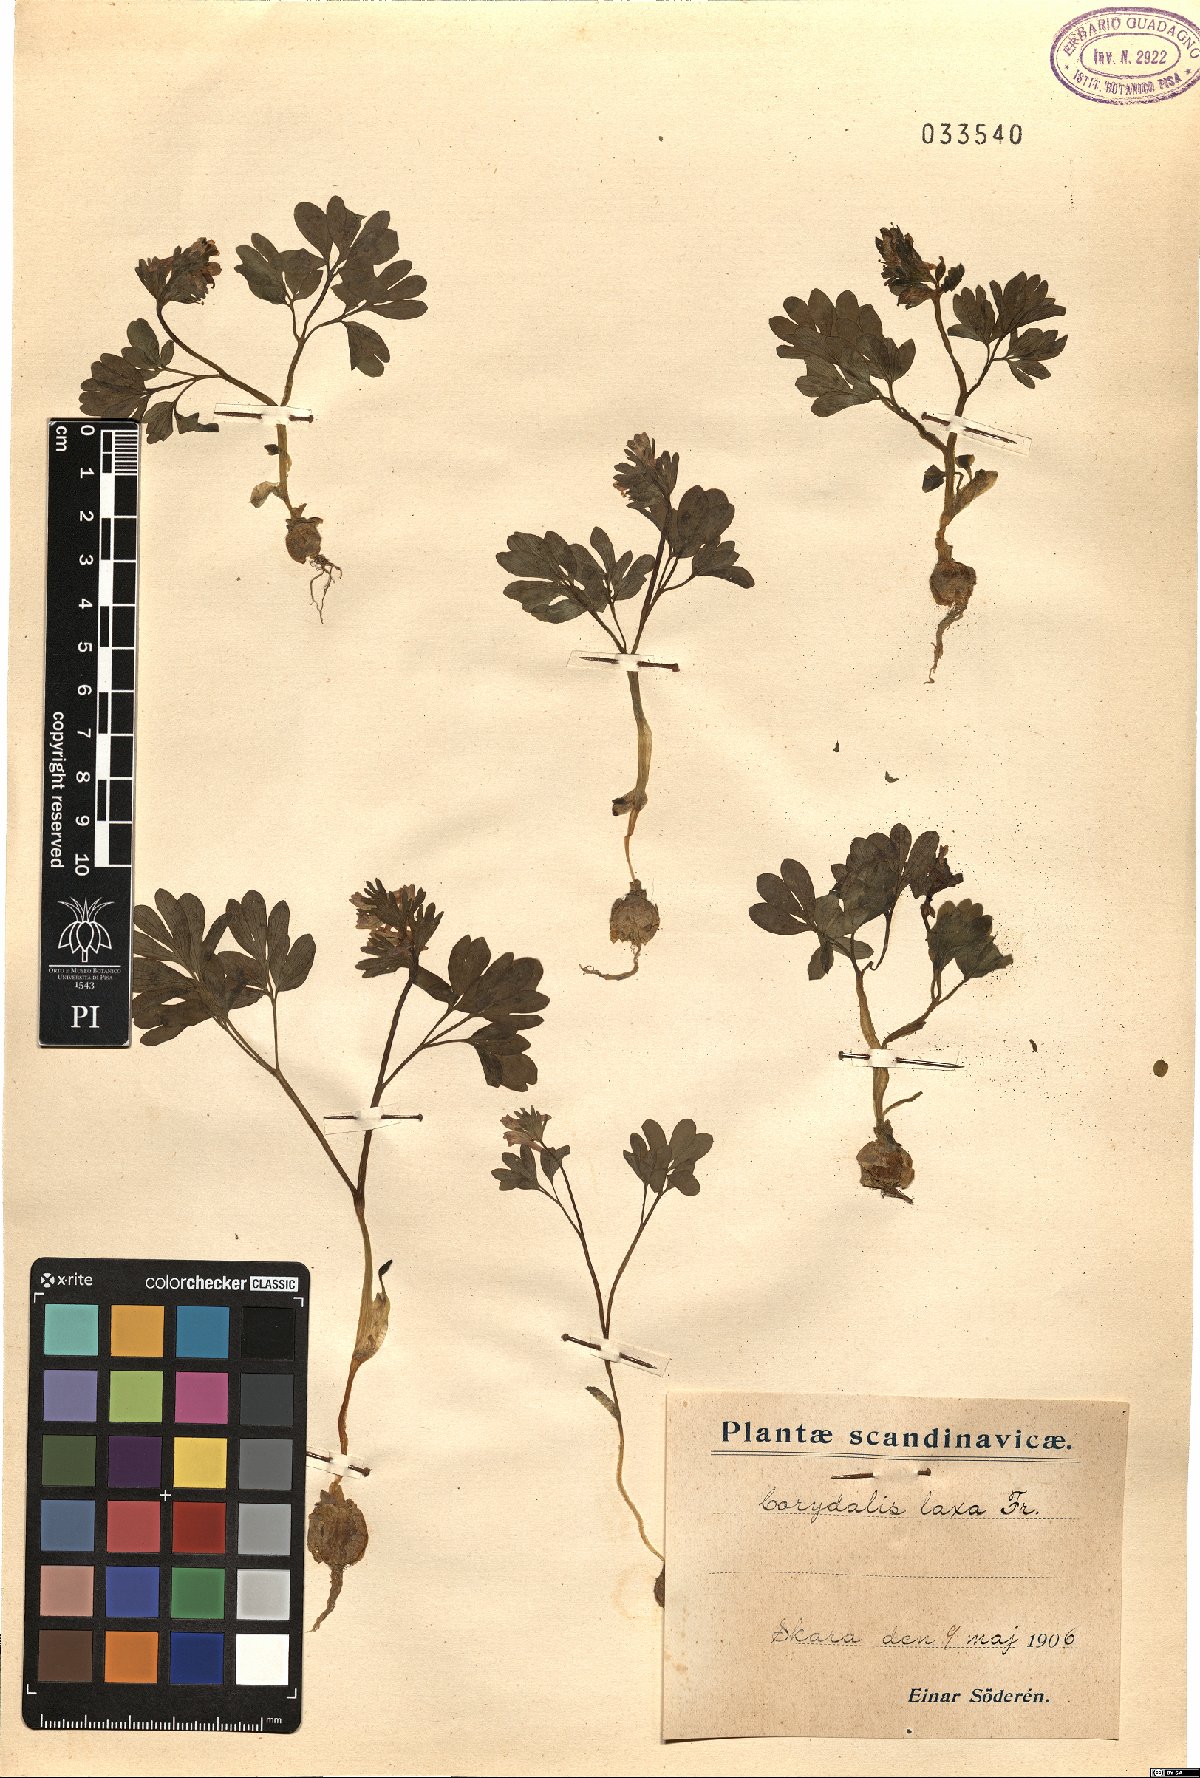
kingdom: Plantae
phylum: Tracheophyta
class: Magnoliopsida
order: Ranunculales
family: Papaveraceae
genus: Corydalis
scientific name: Corydalis laxa
